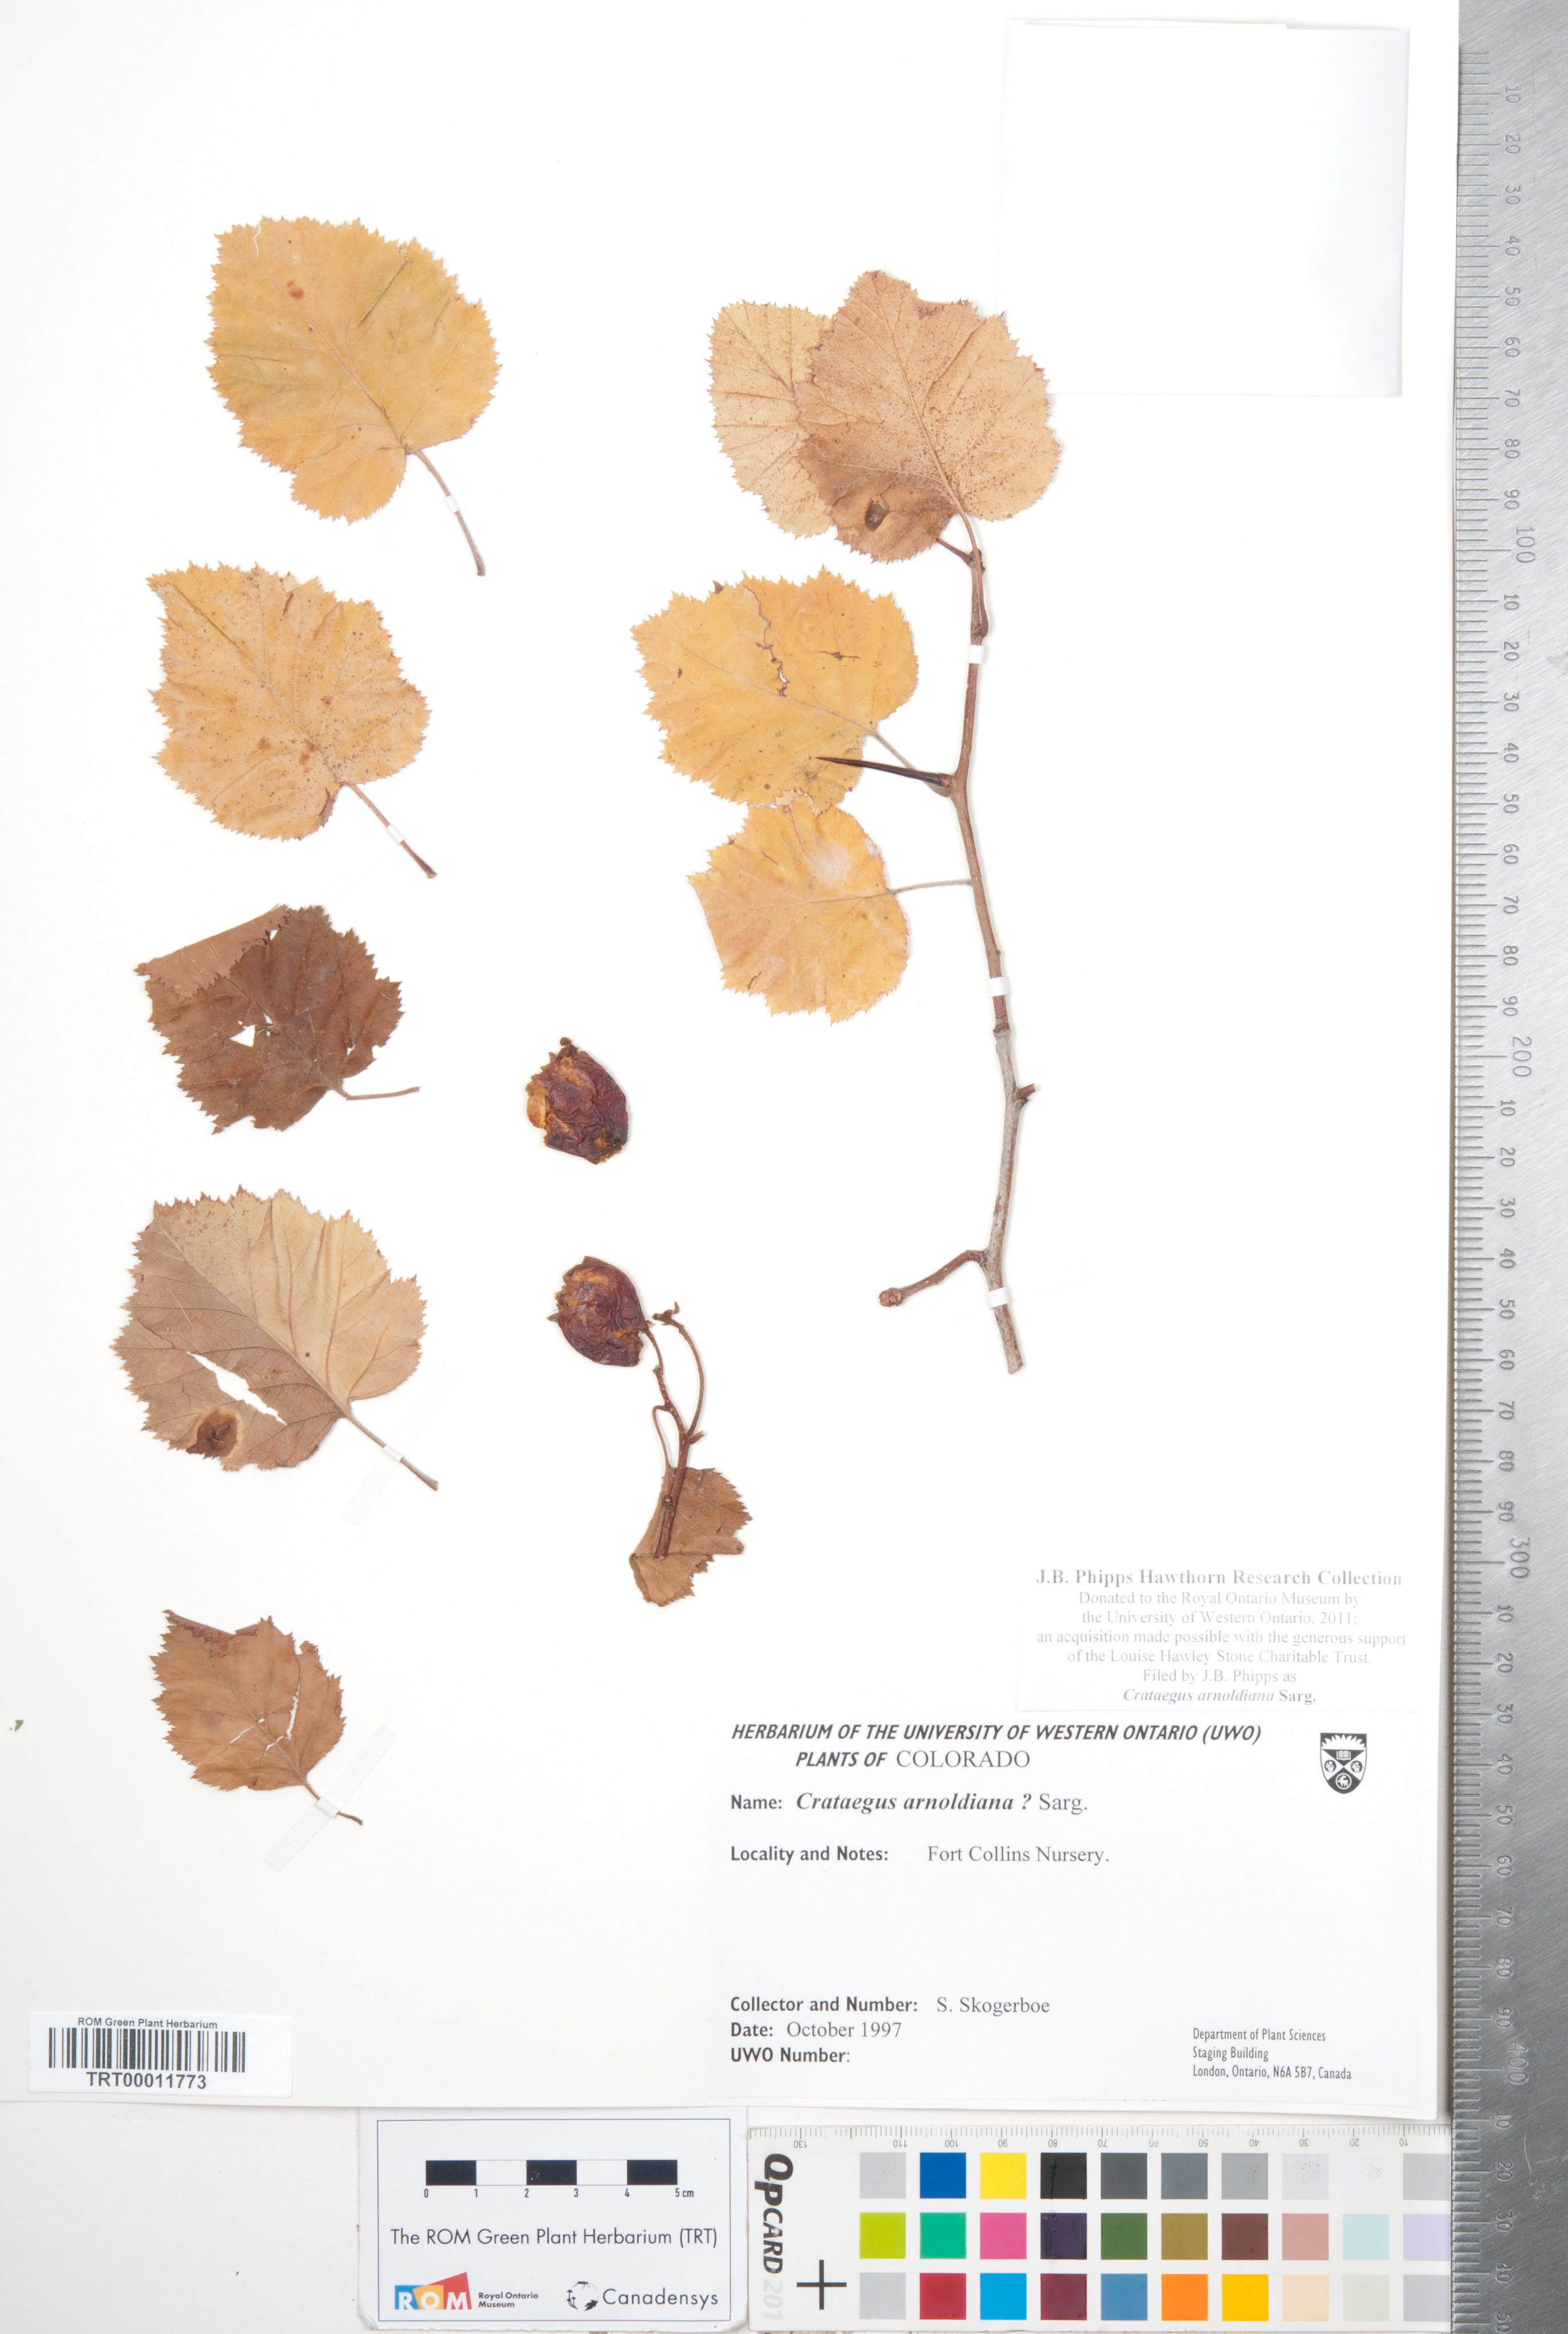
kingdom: Plantae
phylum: Tracheophyta
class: Magnoliopsida
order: Rosales
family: Rosaceae
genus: Crataegus
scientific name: Crataegus holmesiana
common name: Holmes' hawthorn
